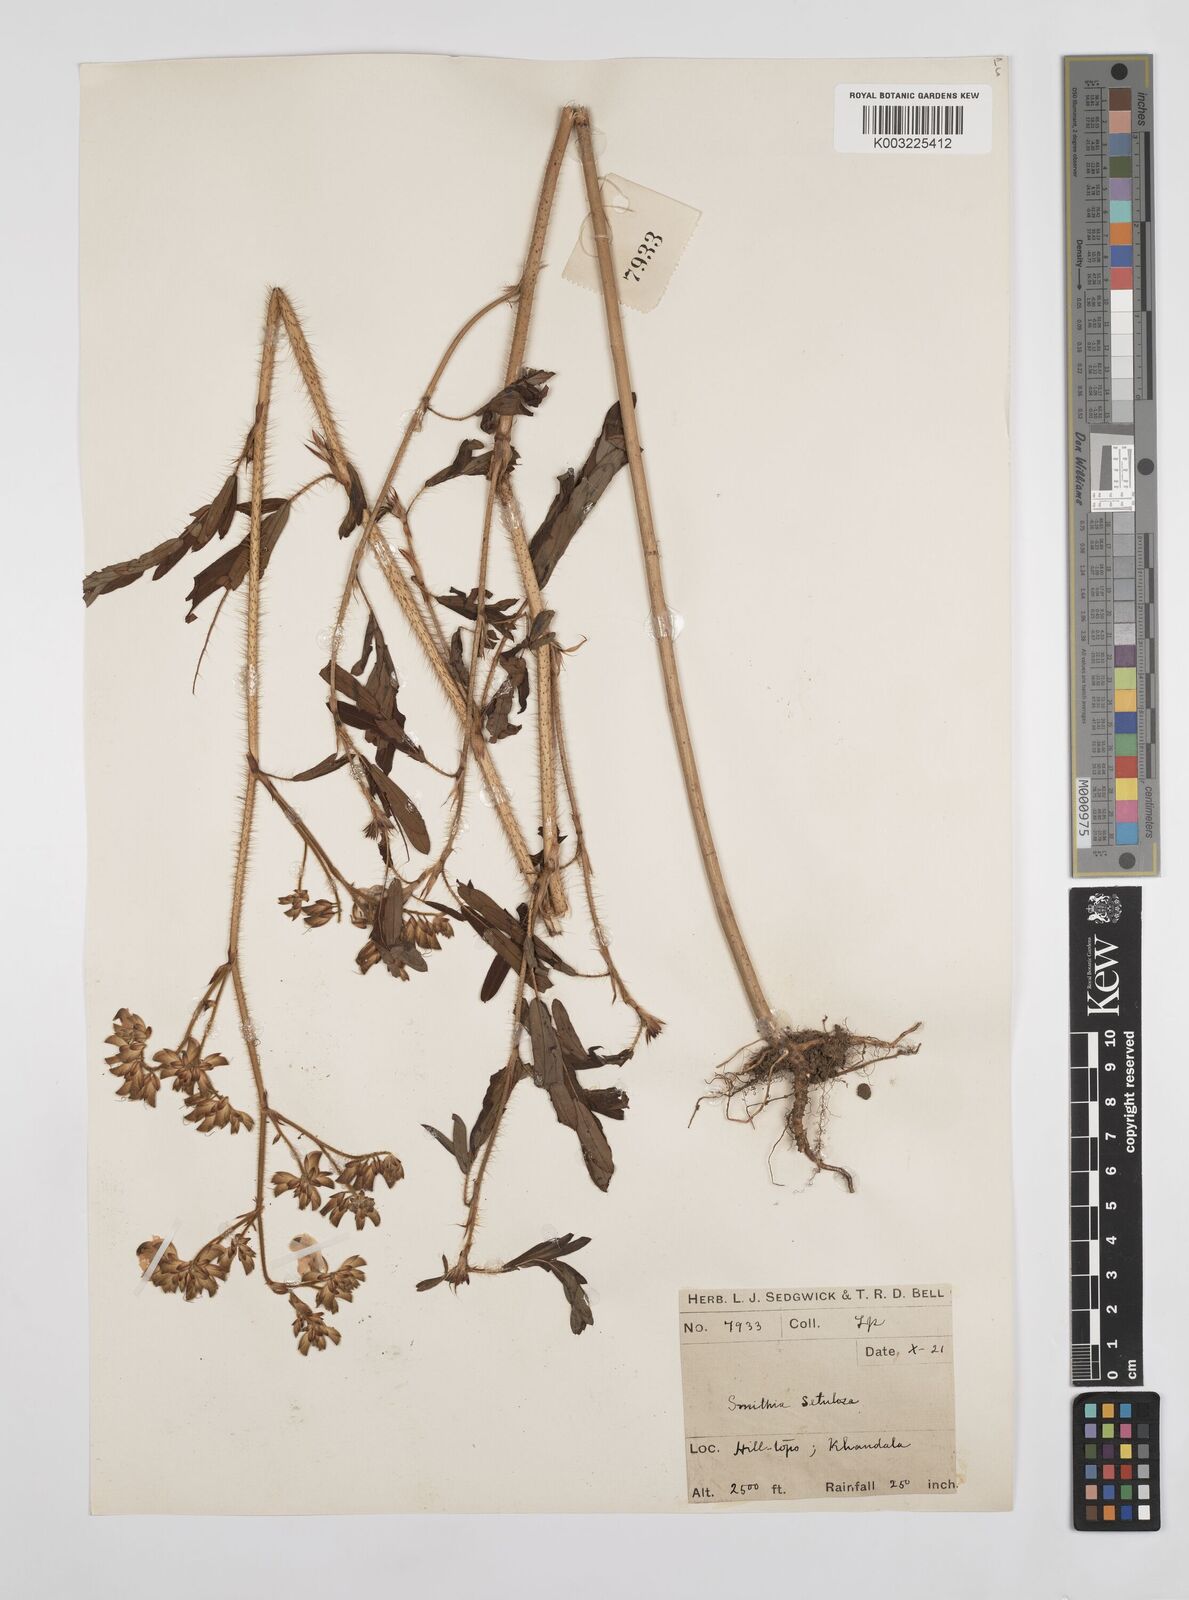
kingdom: Plantae
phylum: Tracheophyta
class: Magnoliopsida
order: Fabales
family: Fabaceae
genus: Smithia
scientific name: Smithia setulosa
